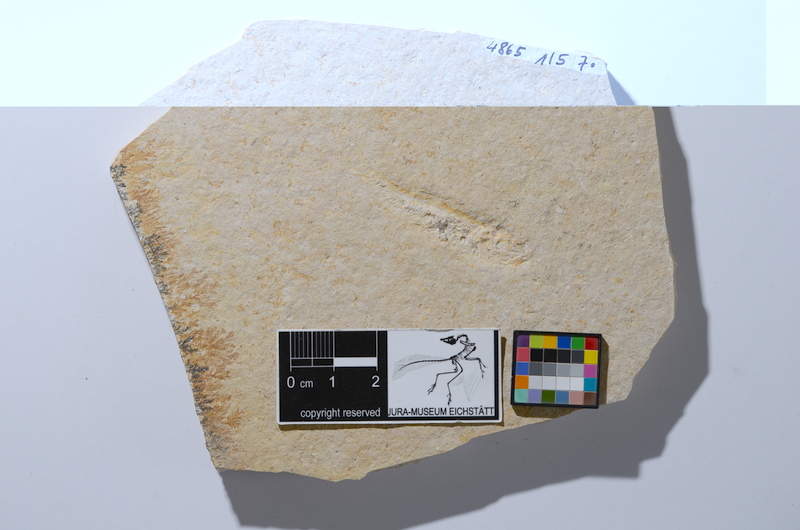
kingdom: Animalia
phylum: Chordata
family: Ascalaboidae
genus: Tharsis
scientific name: Tharsis dubius
